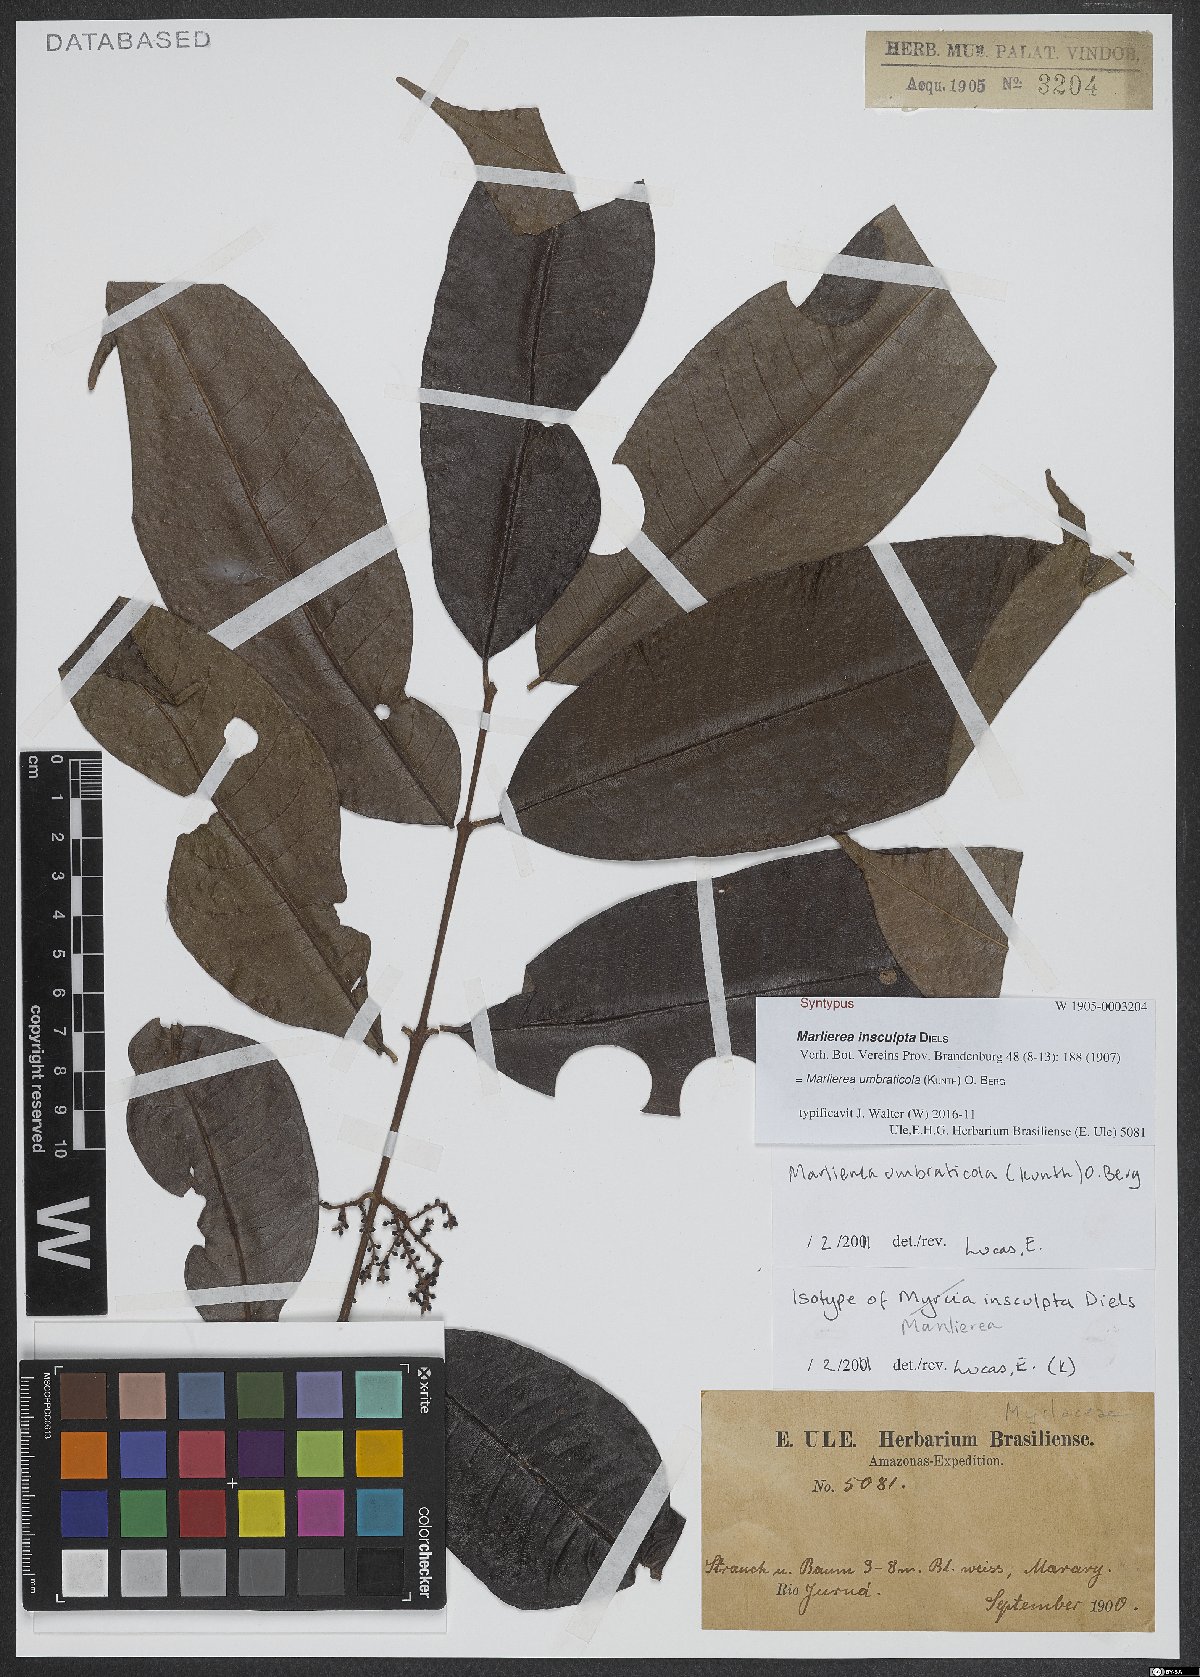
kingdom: Plantae
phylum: Tracheophyta
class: Magnoliopsida
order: Myrtales
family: Myrtaceae
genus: Myrcia
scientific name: Myrcia umbraticola
